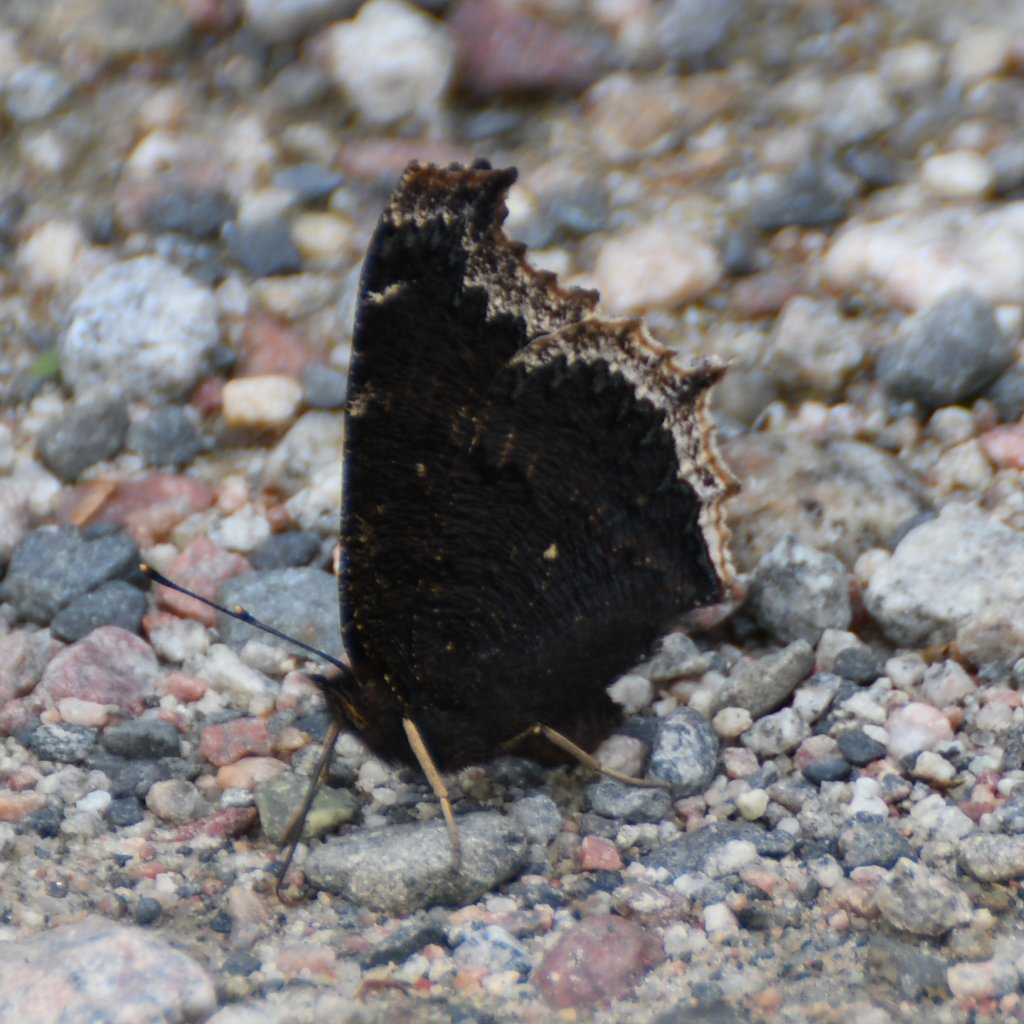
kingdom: Animalia
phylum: Arthropoda
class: Insecta
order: Lepidoptera
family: Nymphalidae
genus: Nymphalis
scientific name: Nymphalis antiopa
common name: Mourning Cloak
